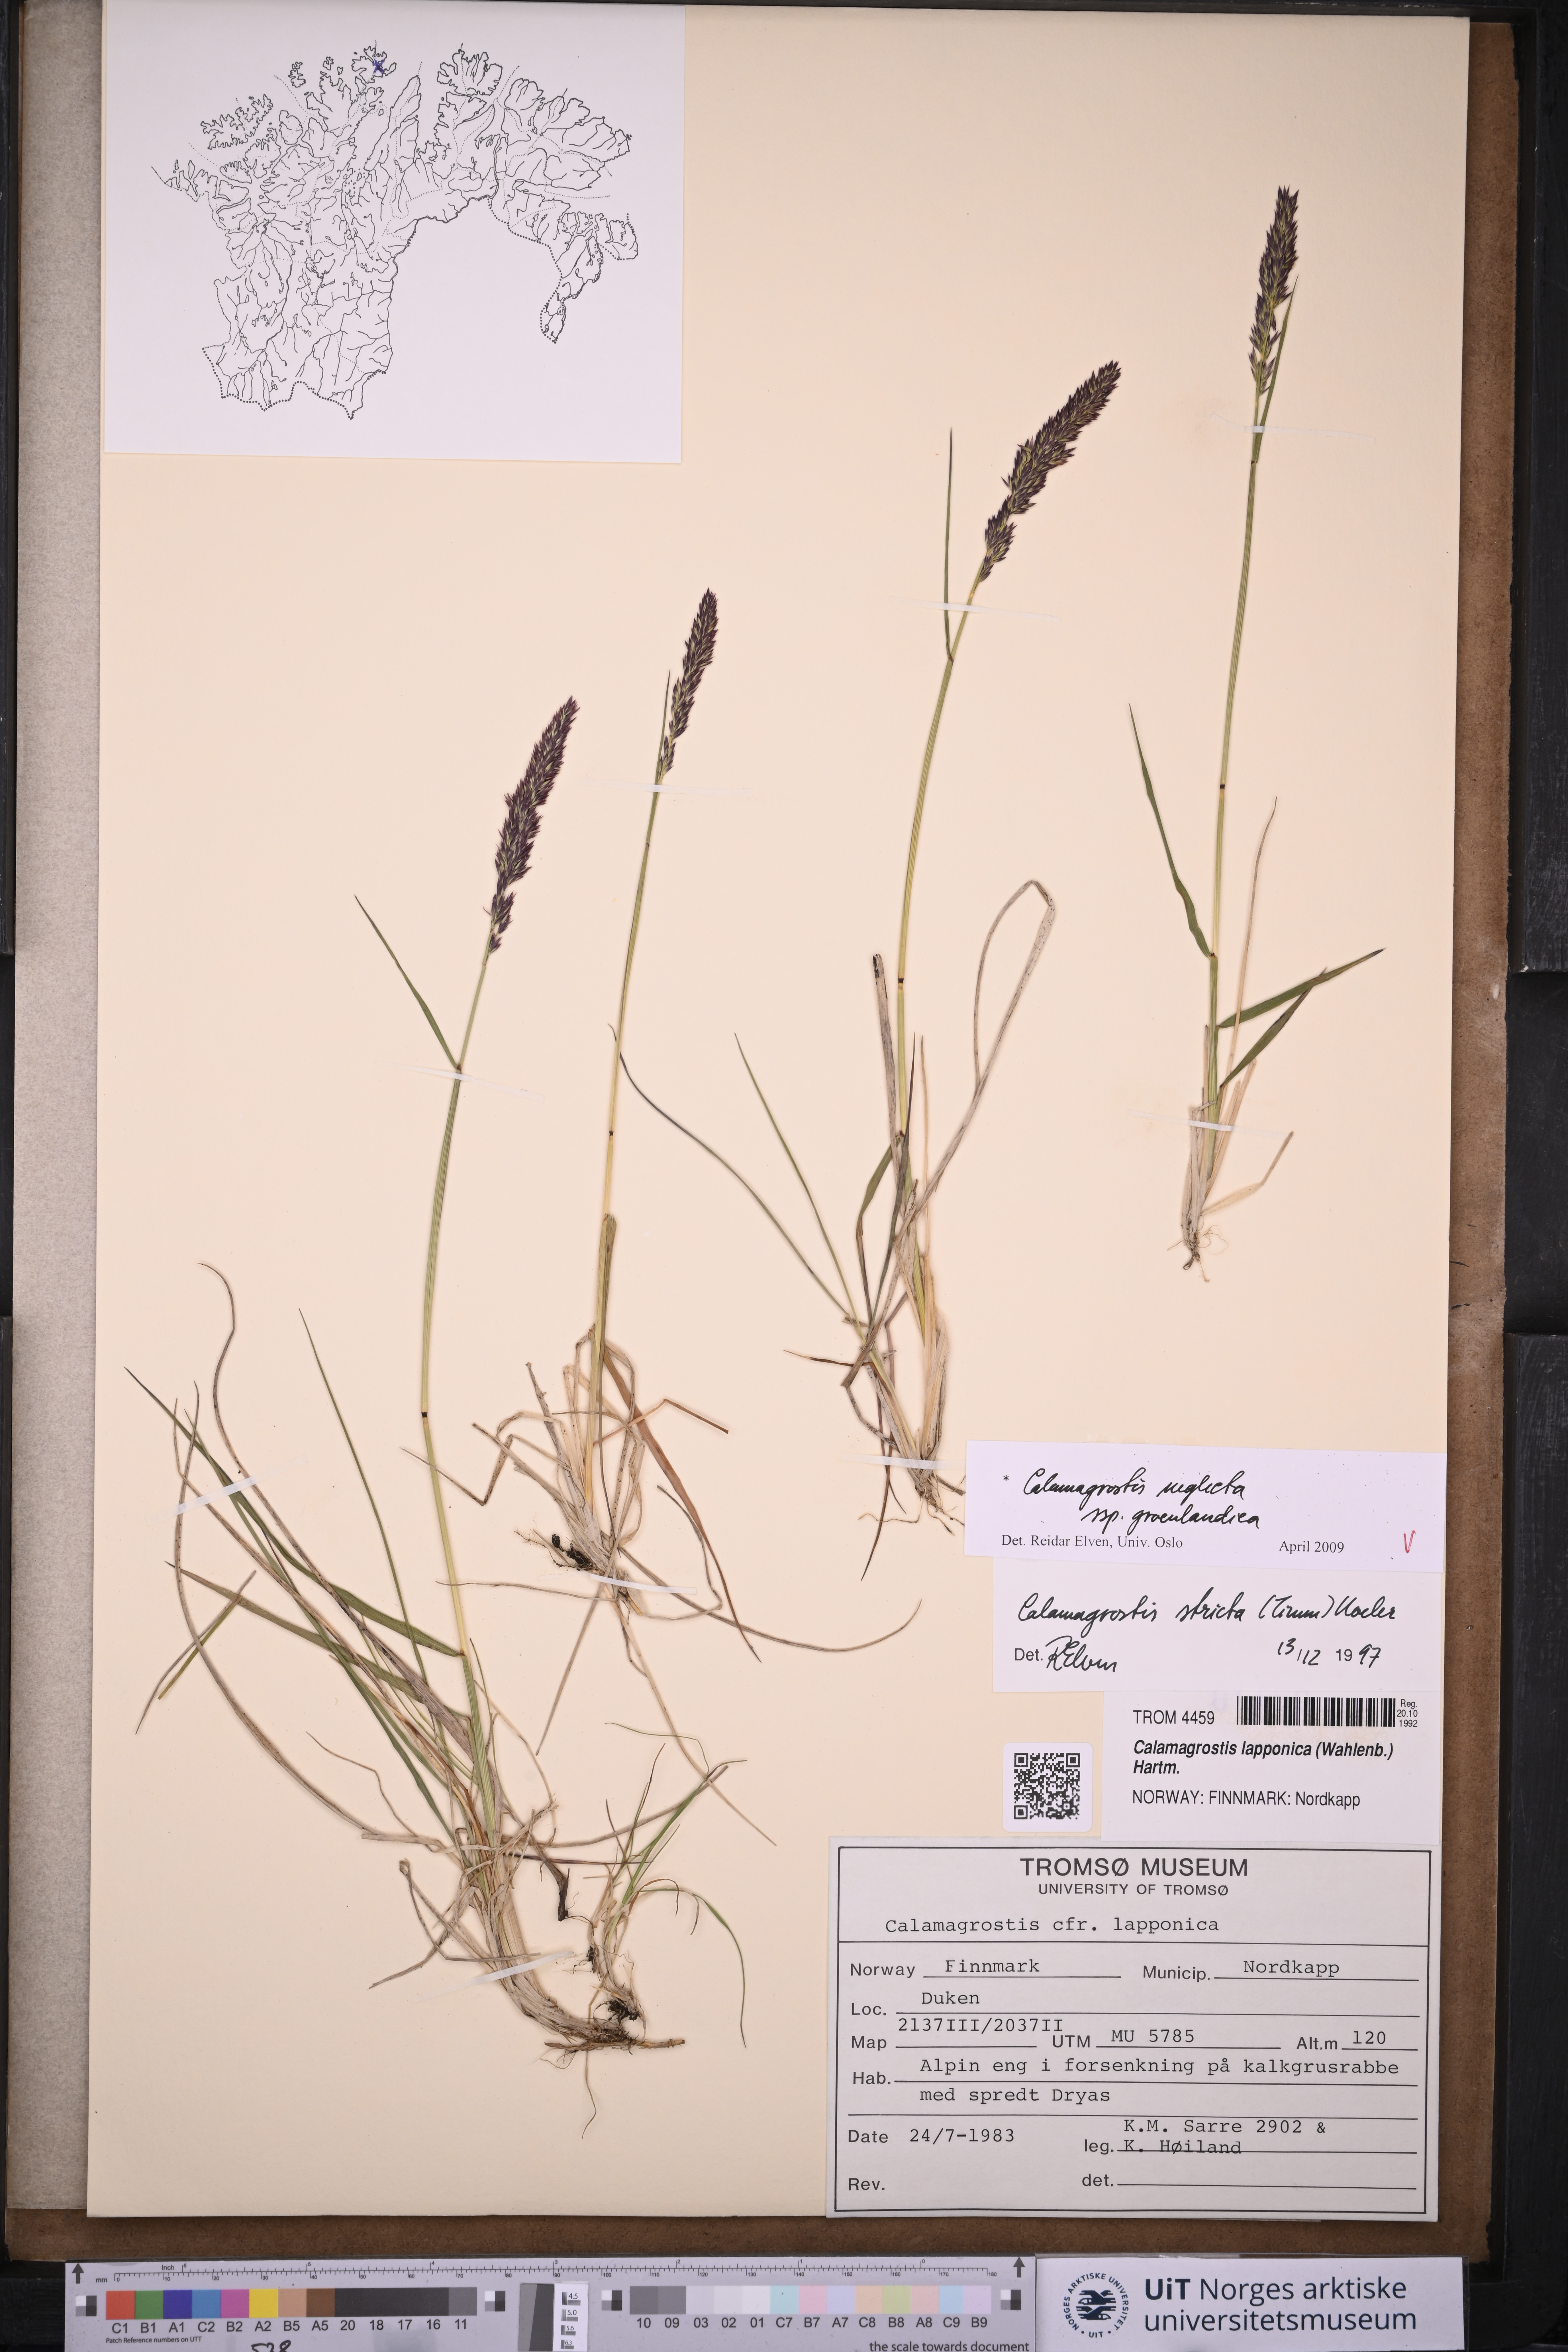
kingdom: Plantae
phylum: Tracheophyta
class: Liliopsida
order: Poales
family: Poaceae
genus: Calamagrostis
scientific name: Calamagrostis stricta
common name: Narrow small-reed
